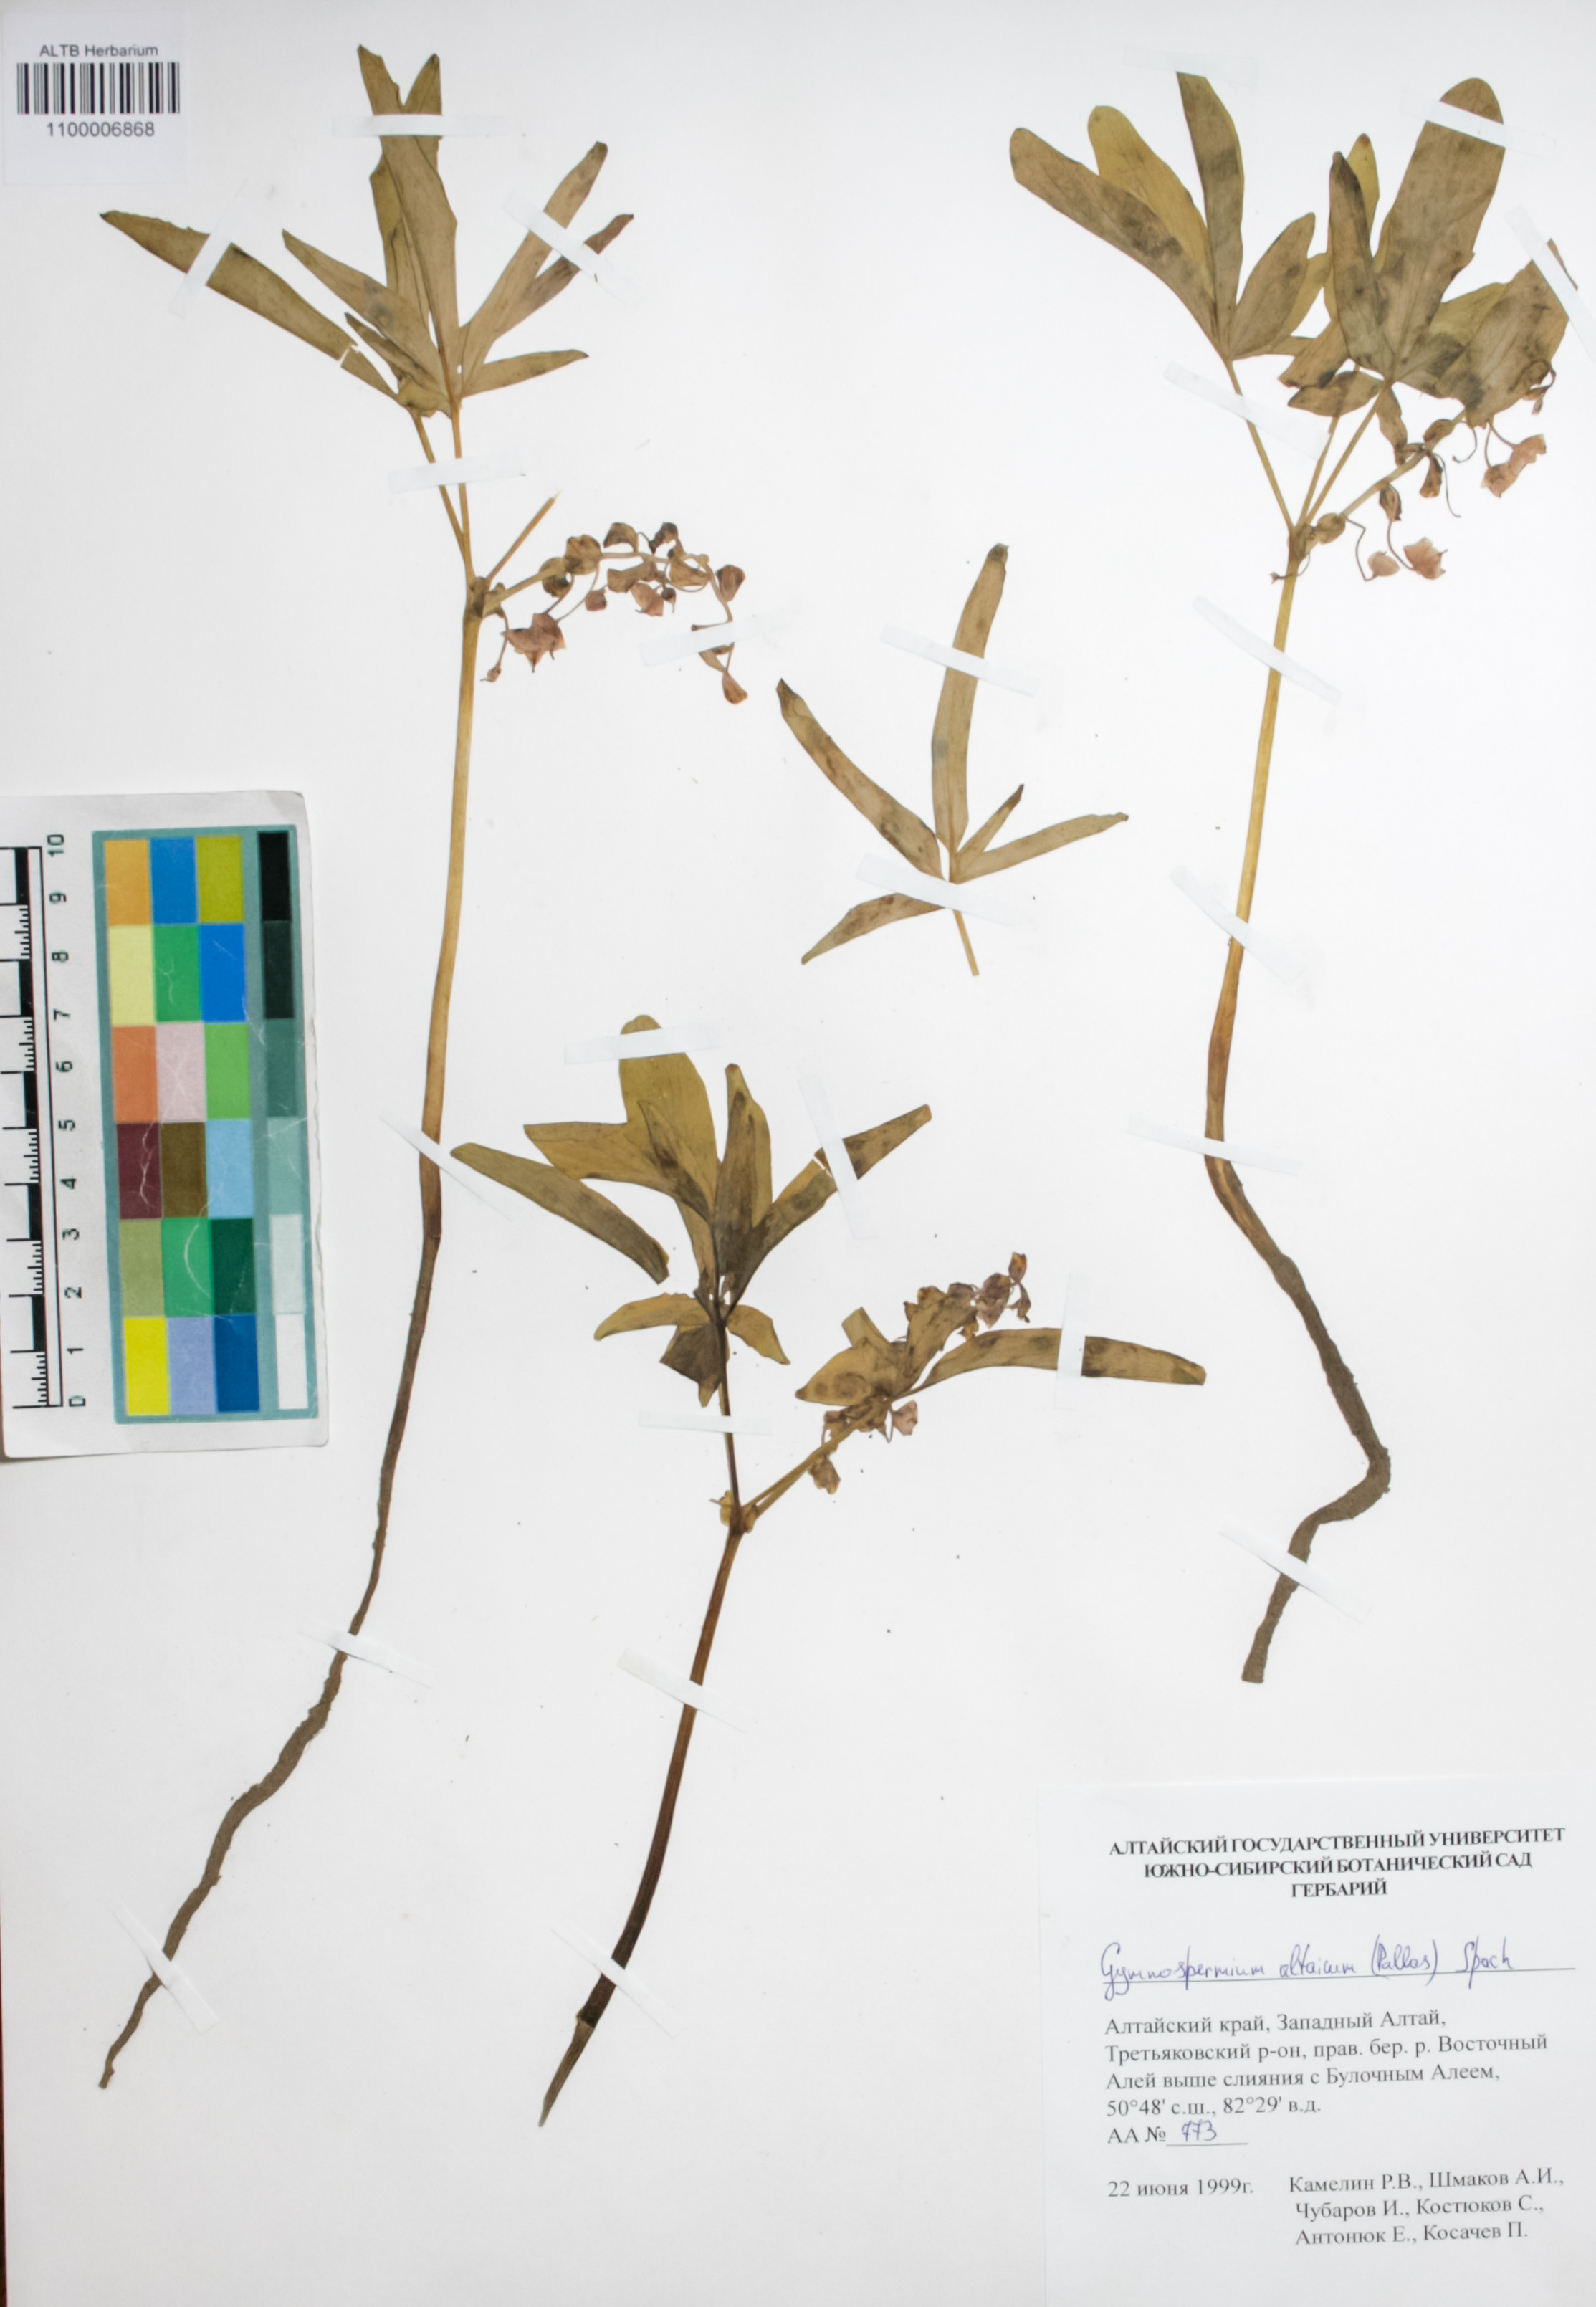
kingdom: Plantae
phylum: Tracheophyta
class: Magnoliopsida
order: Ranunculales
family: Berberidaceae
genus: Gymnospermium
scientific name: Gymnospermium altaicum
